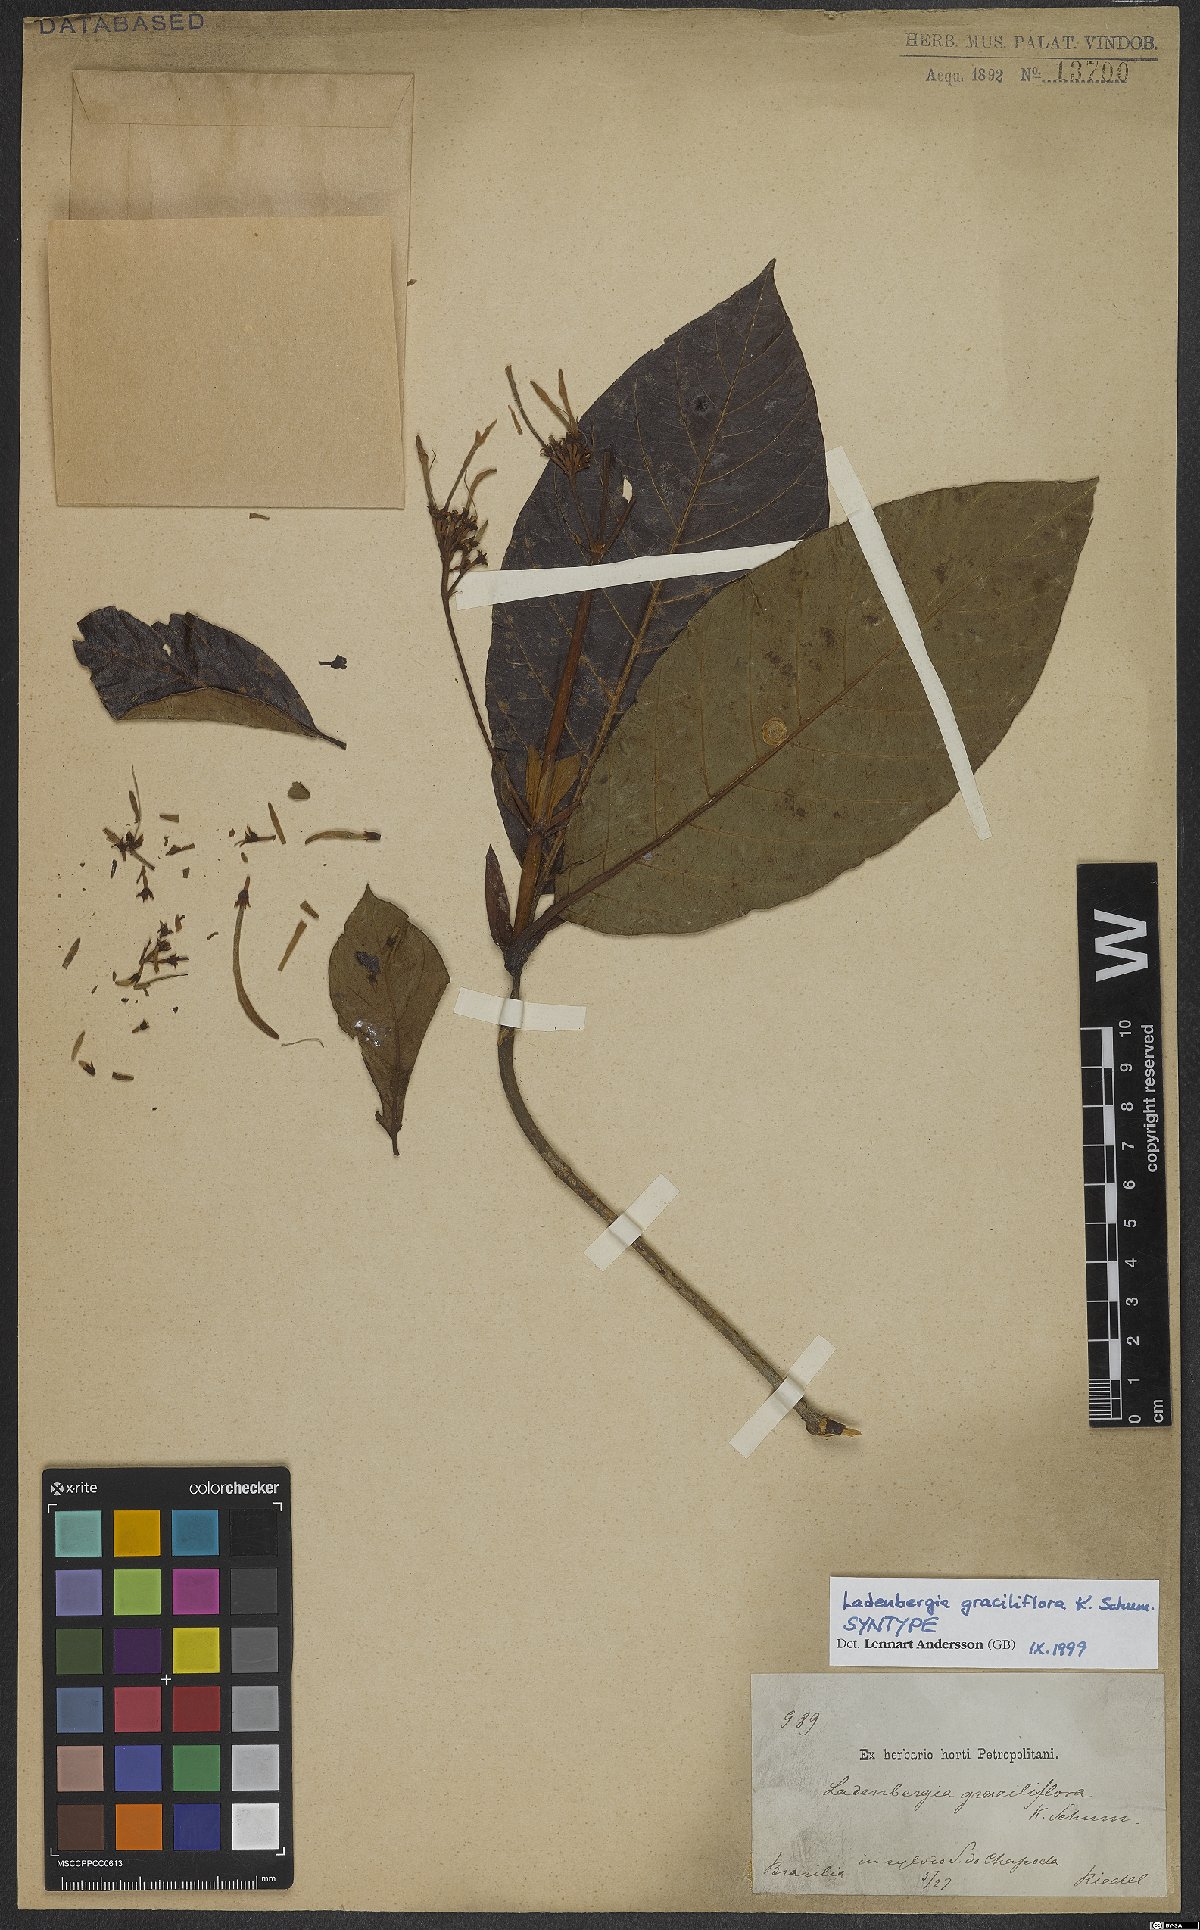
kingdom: Plantae
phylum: Tracheophyta
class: Magnoliopsida
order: Gentianales
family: Rubiaceae
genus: Ladenbergia
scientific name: Ladenbergia graciliflora
